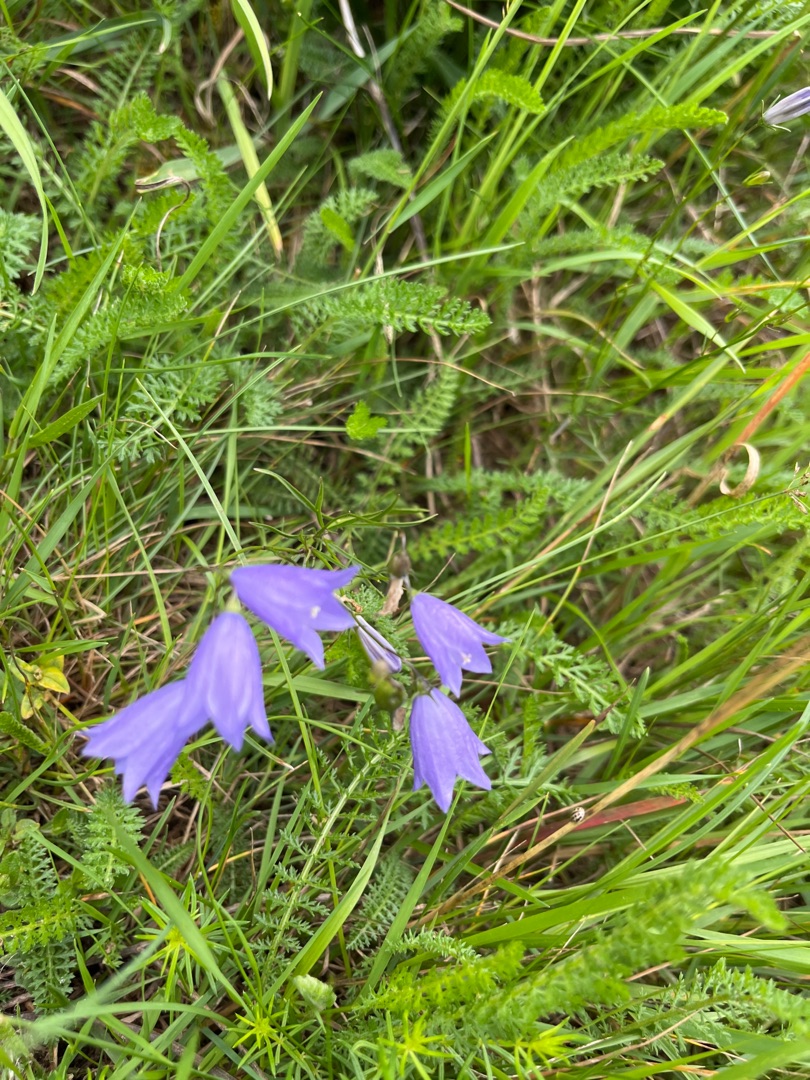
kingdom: Plantae
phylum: Tracheophyta
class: Magnoliopsida
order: Asterales
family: Campanulaceae
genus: Campanula
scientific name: Campanula rotundifolia
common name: Liden klokke
